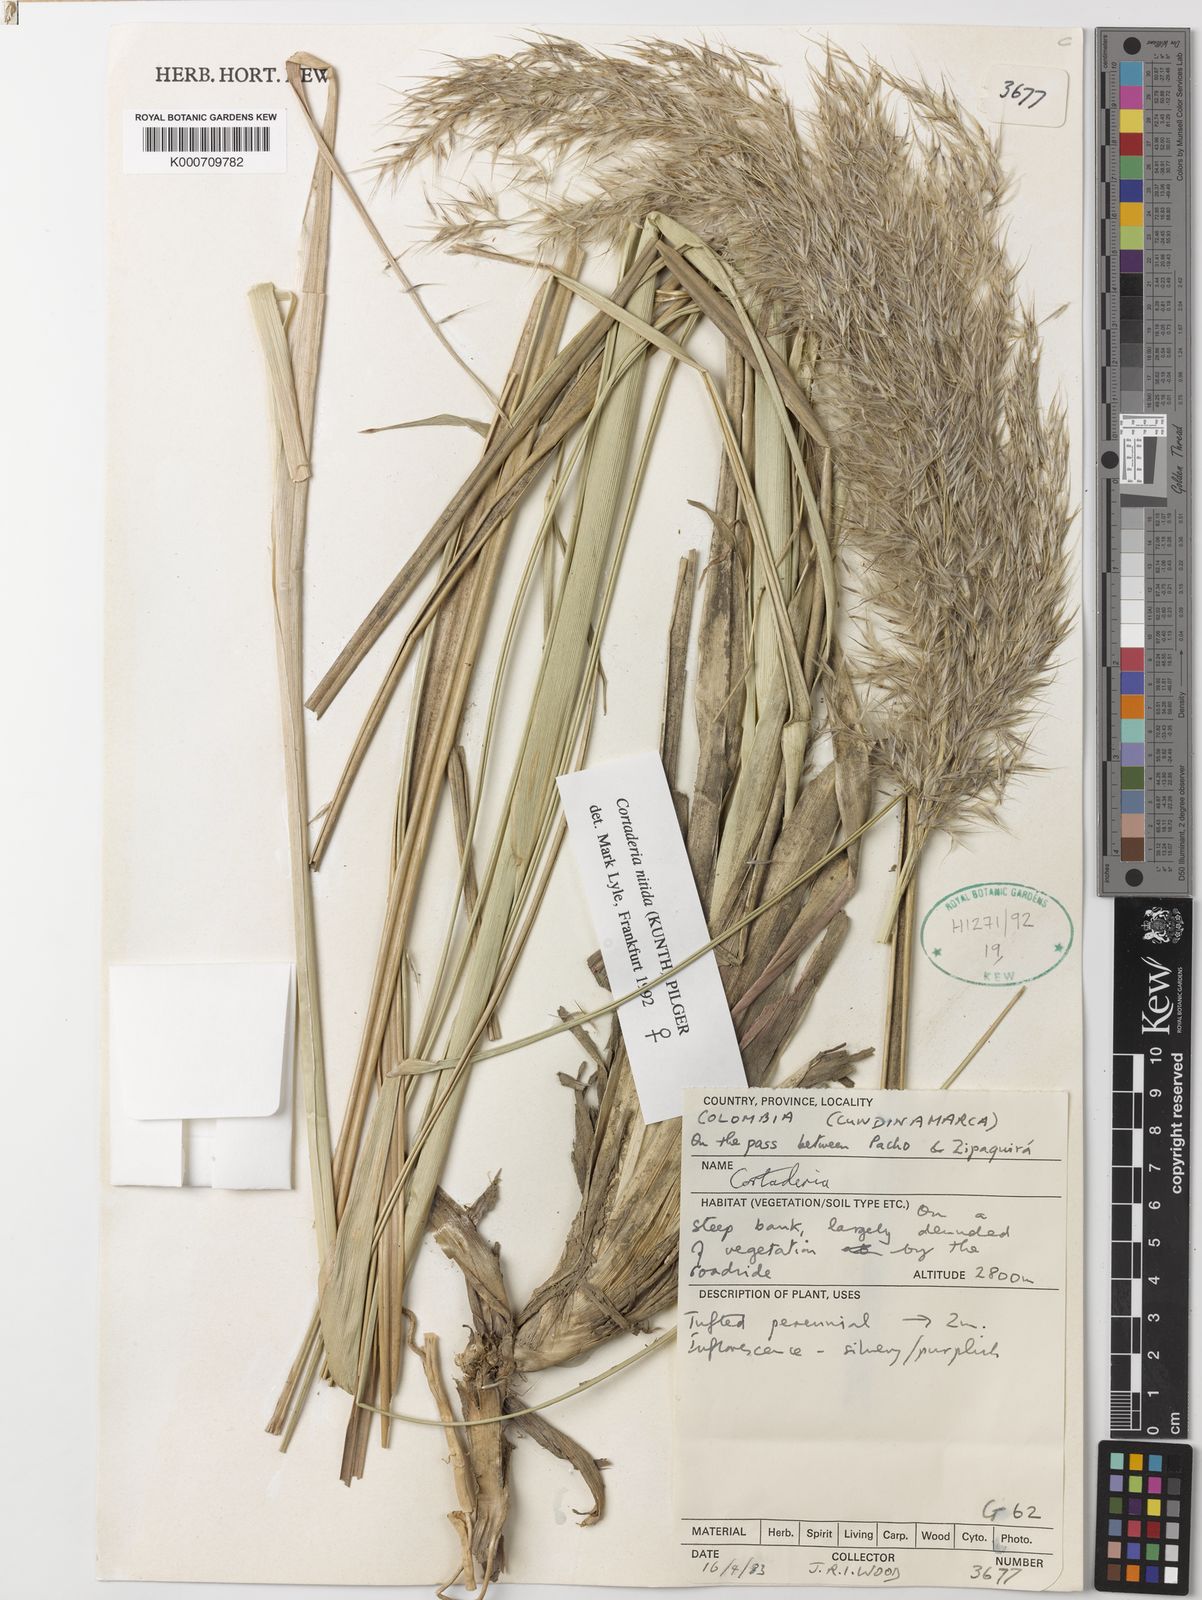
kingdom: Plantae
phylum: Tracheophyta
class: Liliopsida
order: Poales
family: Poaceae
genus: Cortaderia
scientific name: Cortaderia nitida
